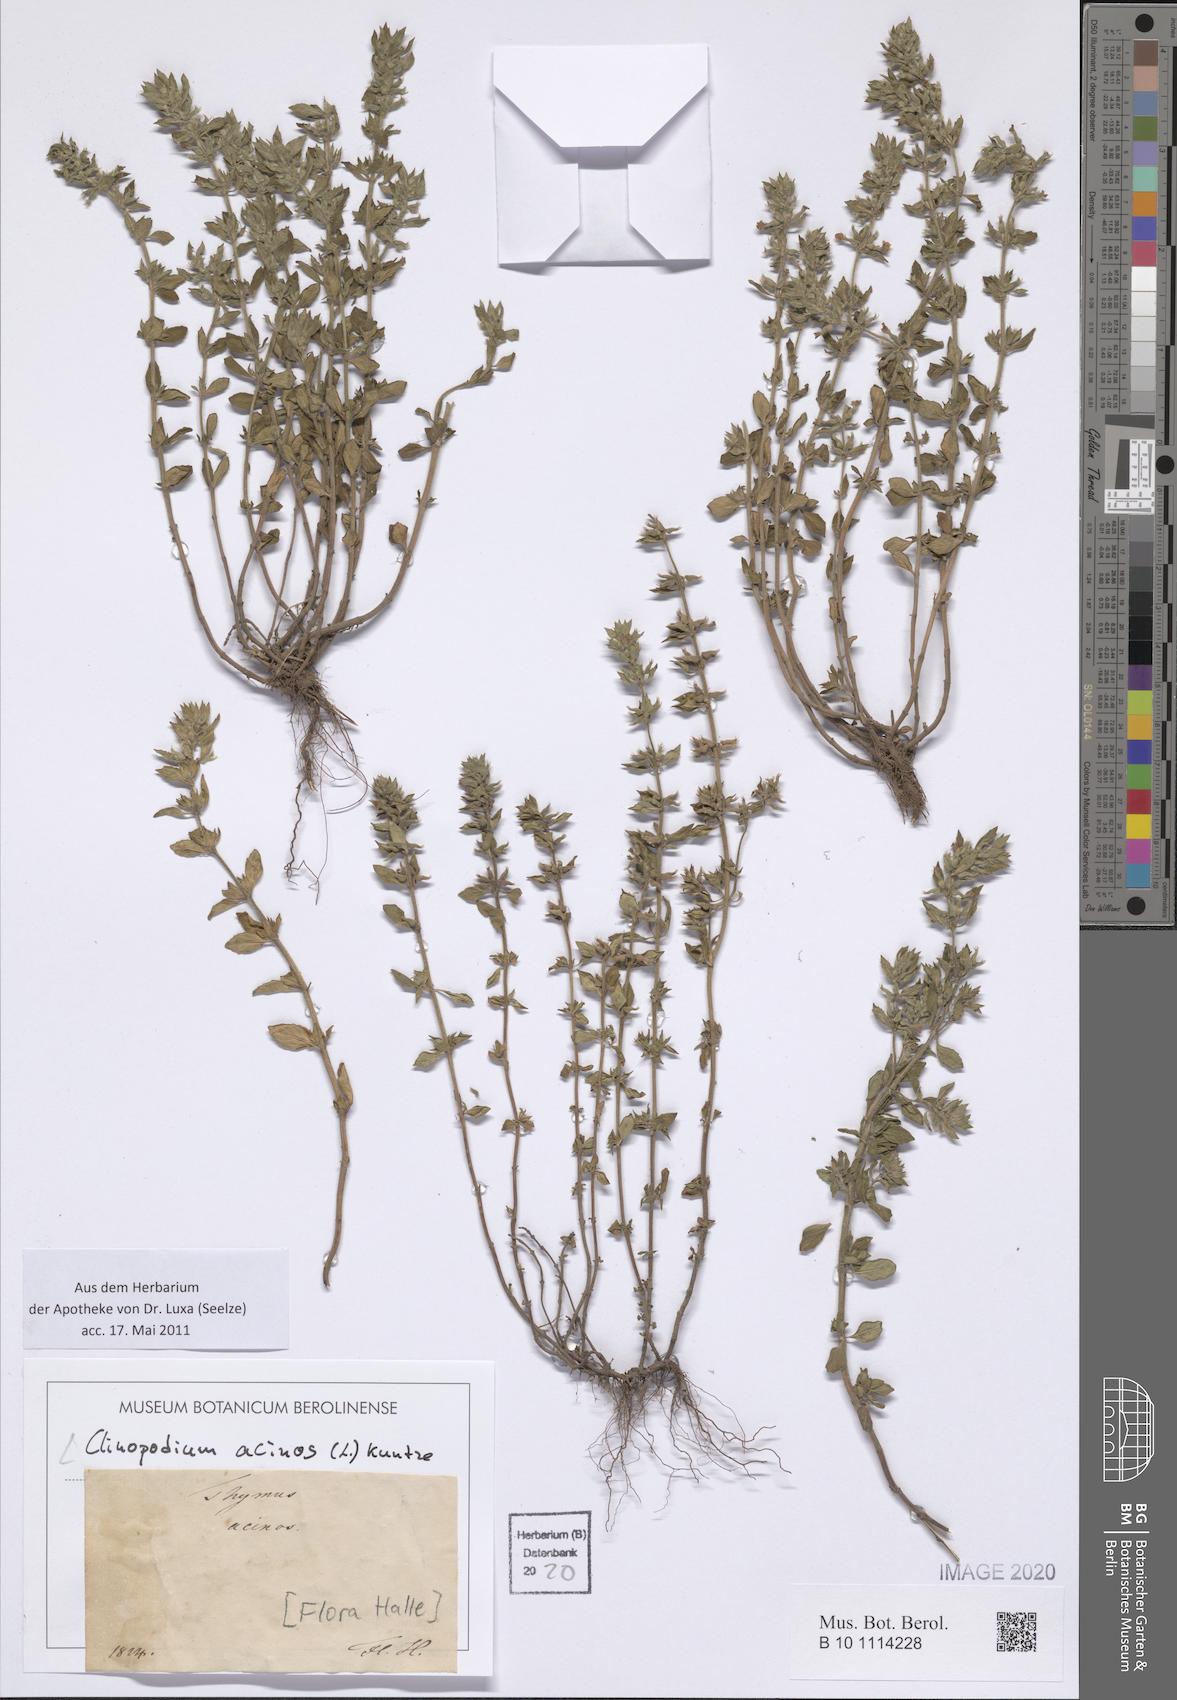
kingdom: Plantae
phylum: Tracheophyta
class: Magnoliopsida
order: Lamiales
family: Lamiaceae
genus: Clinopodium
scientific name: Clinopodium acinos
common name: Basil thyme
